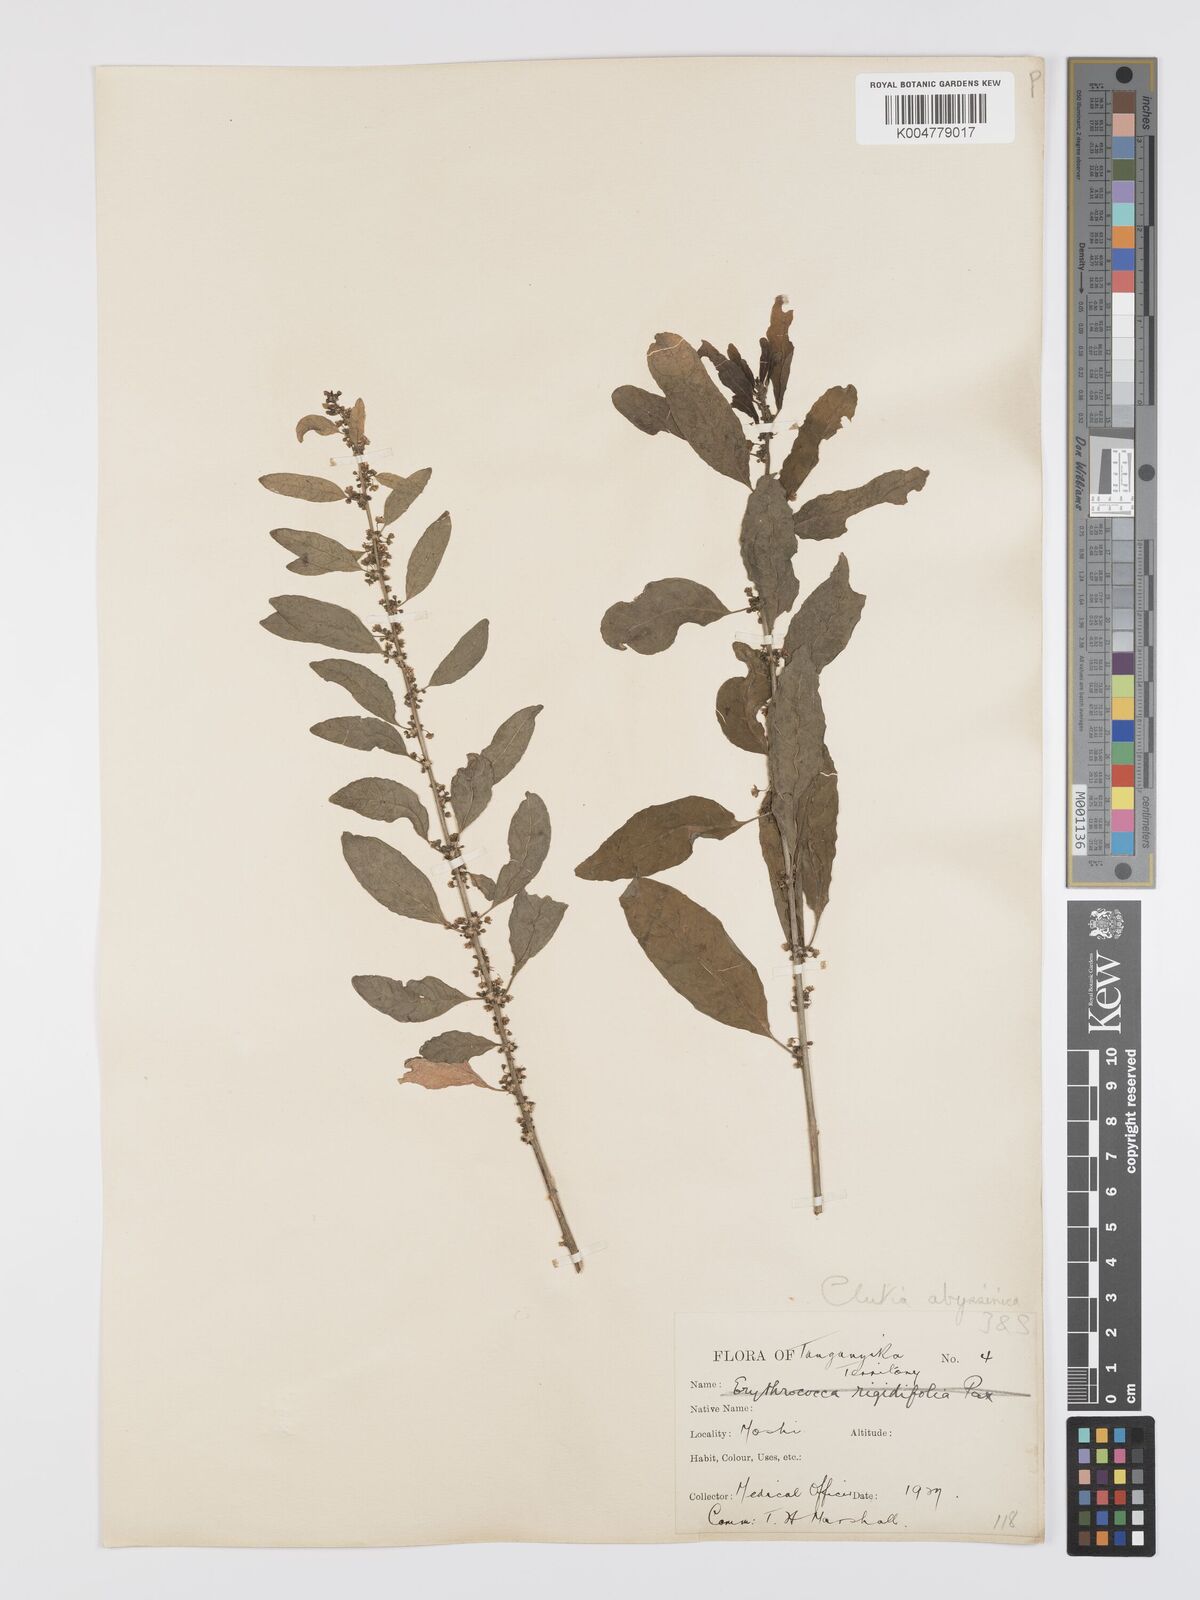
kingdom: Plantae
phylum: Tracheophyta
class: Magnoliopsida
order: Malpighiales
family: Peraceae
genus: Clutia
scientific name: Clutia abyssinica
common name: Large lightning bush
